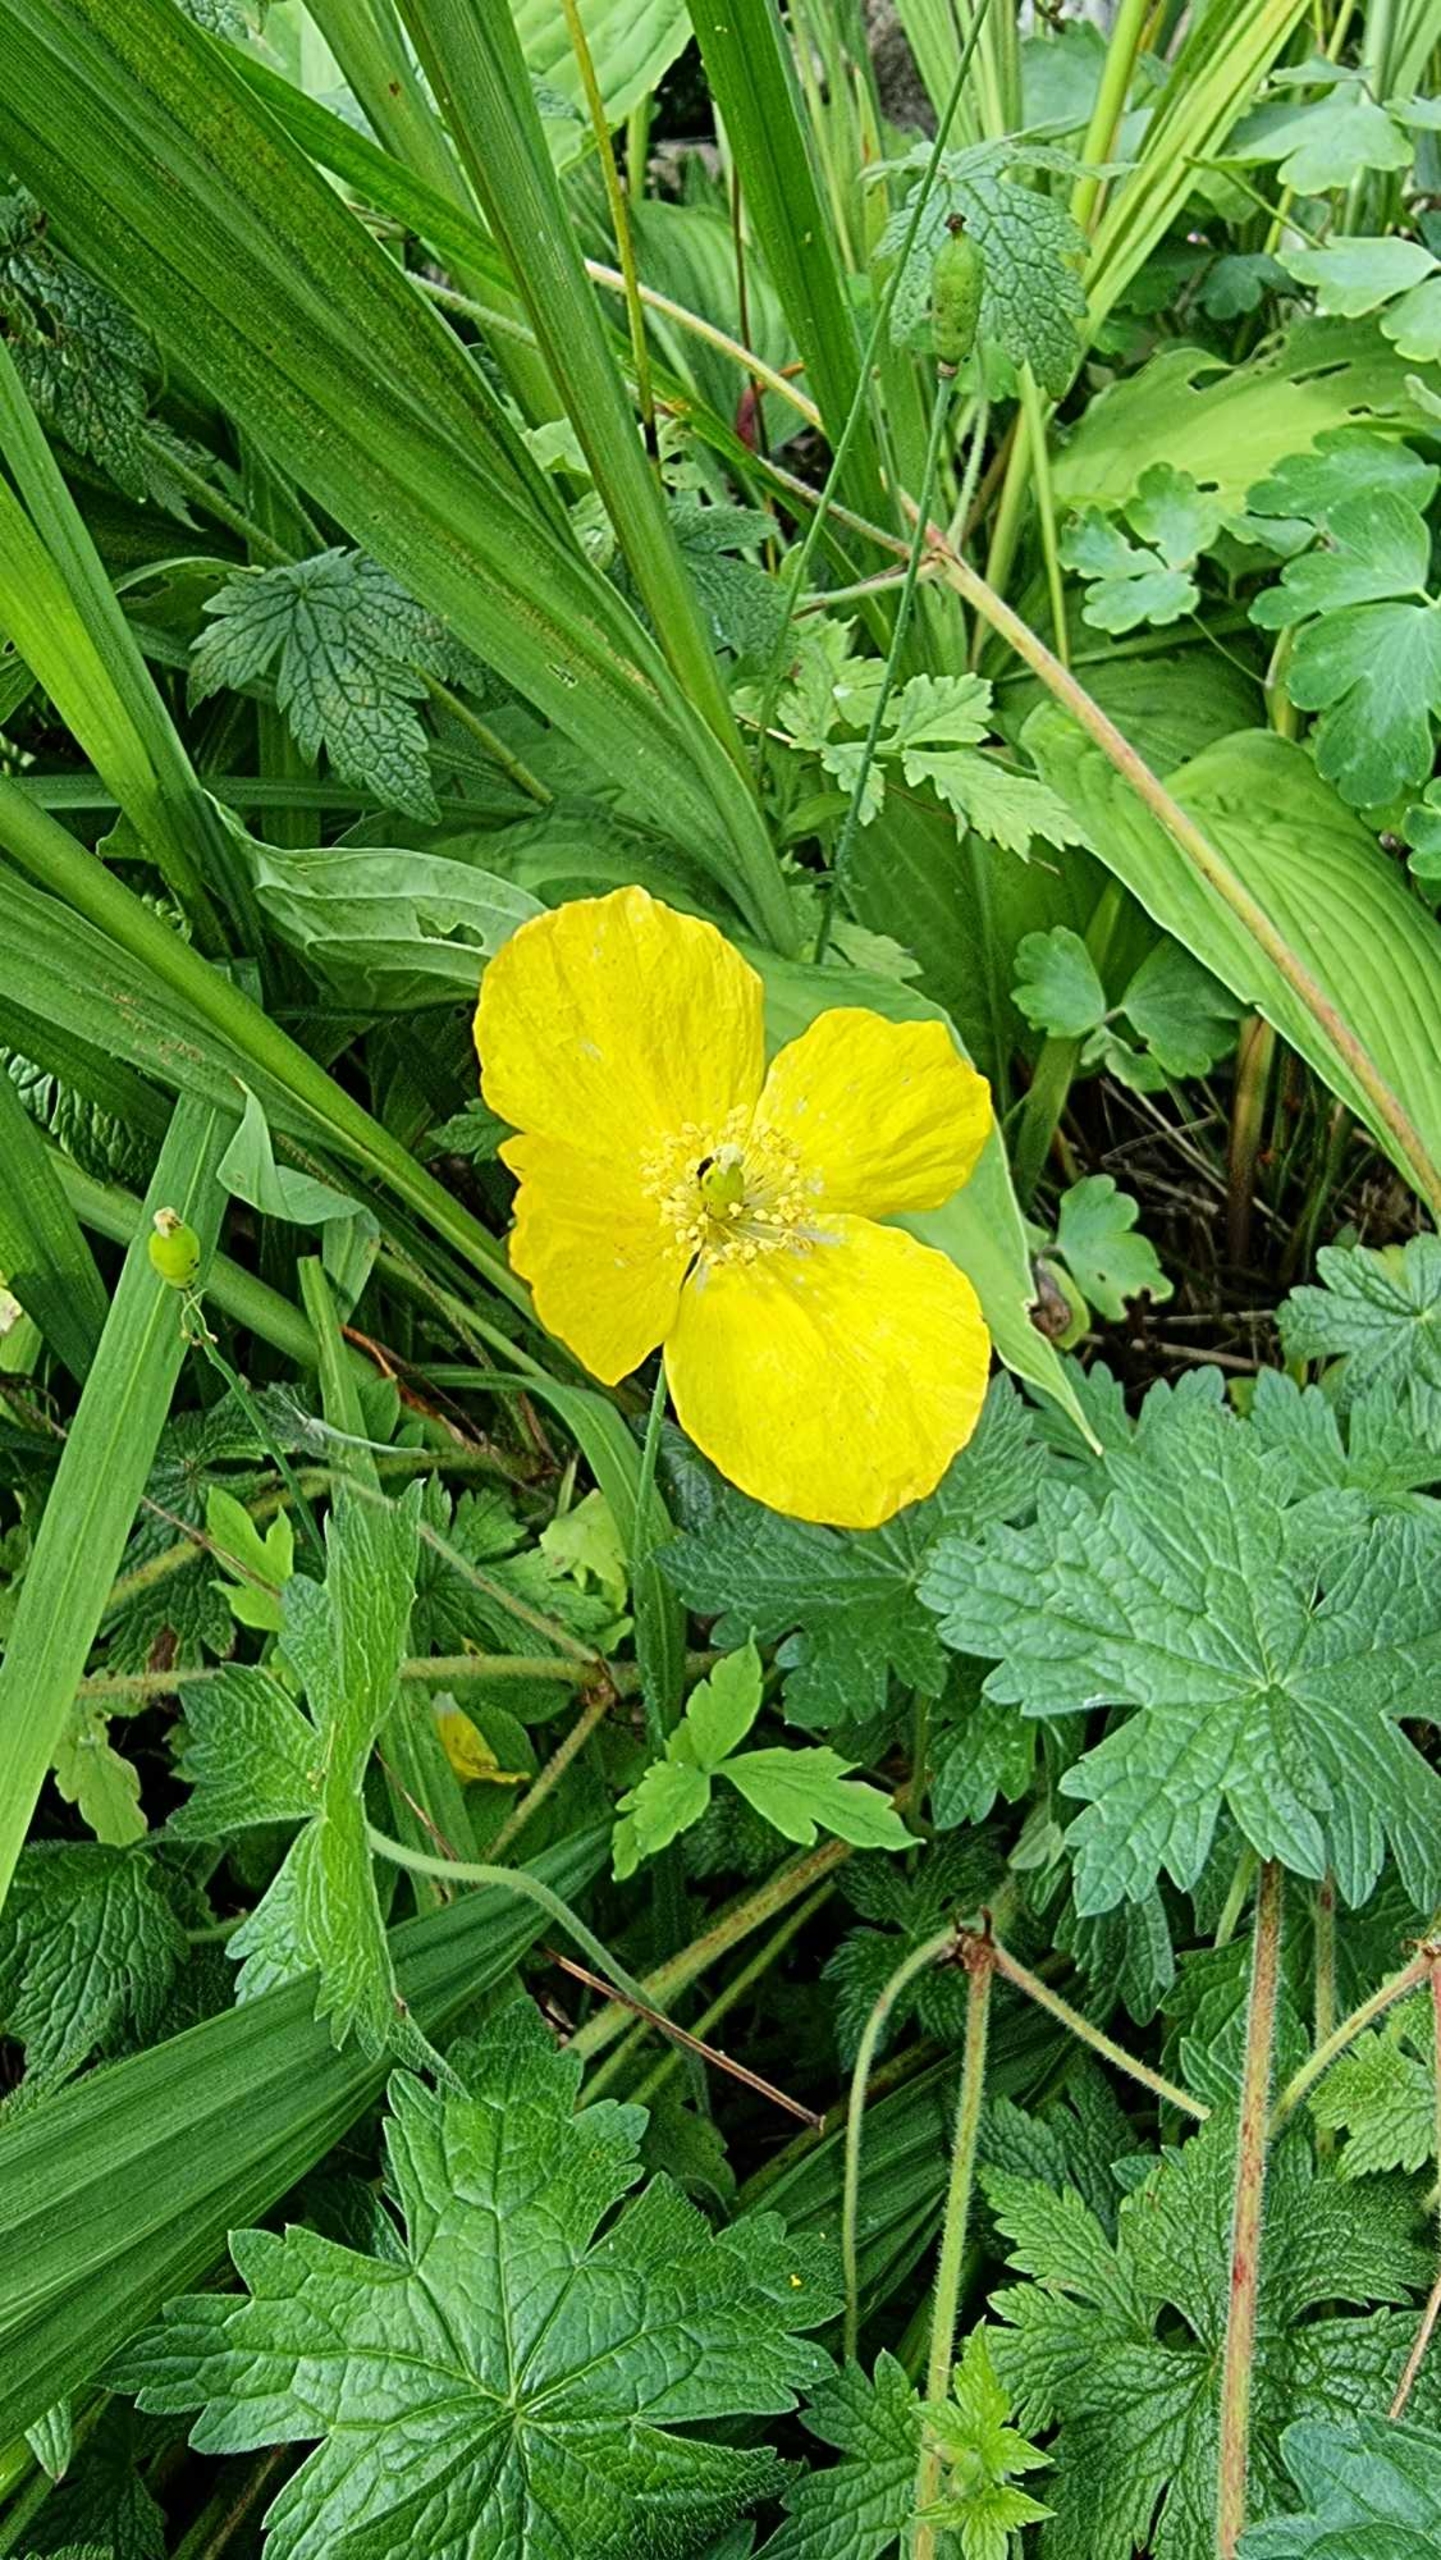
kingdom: Plantae
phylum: Tracheophyta
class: Magnoliopsida
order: Ranunculales
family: Papaveraceae
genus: Papaver
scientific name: Papaver cambricum
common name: Skov-valmue
